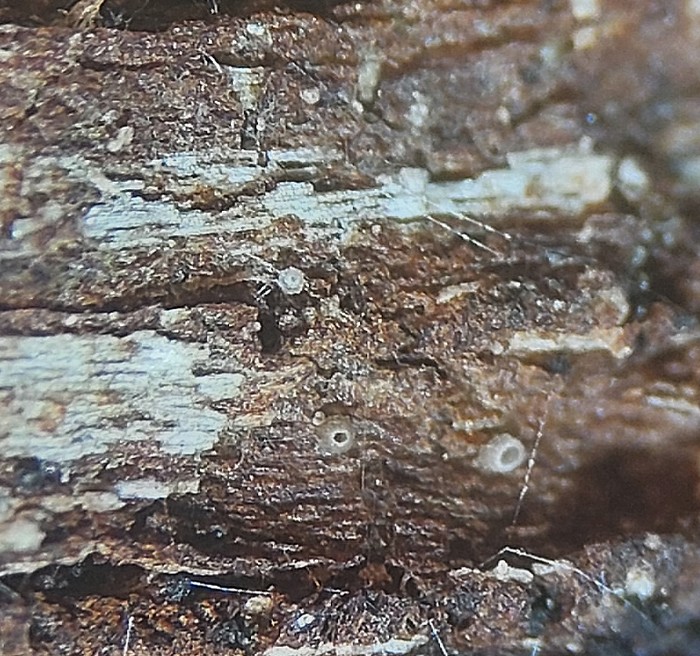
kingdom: Fungi
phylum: Ascomycota
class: Leotiomycetes
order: Helotiales
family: Hyaloscyphaceae
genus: Hyalopeziza
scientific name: Hyalopeziza millepunctata
